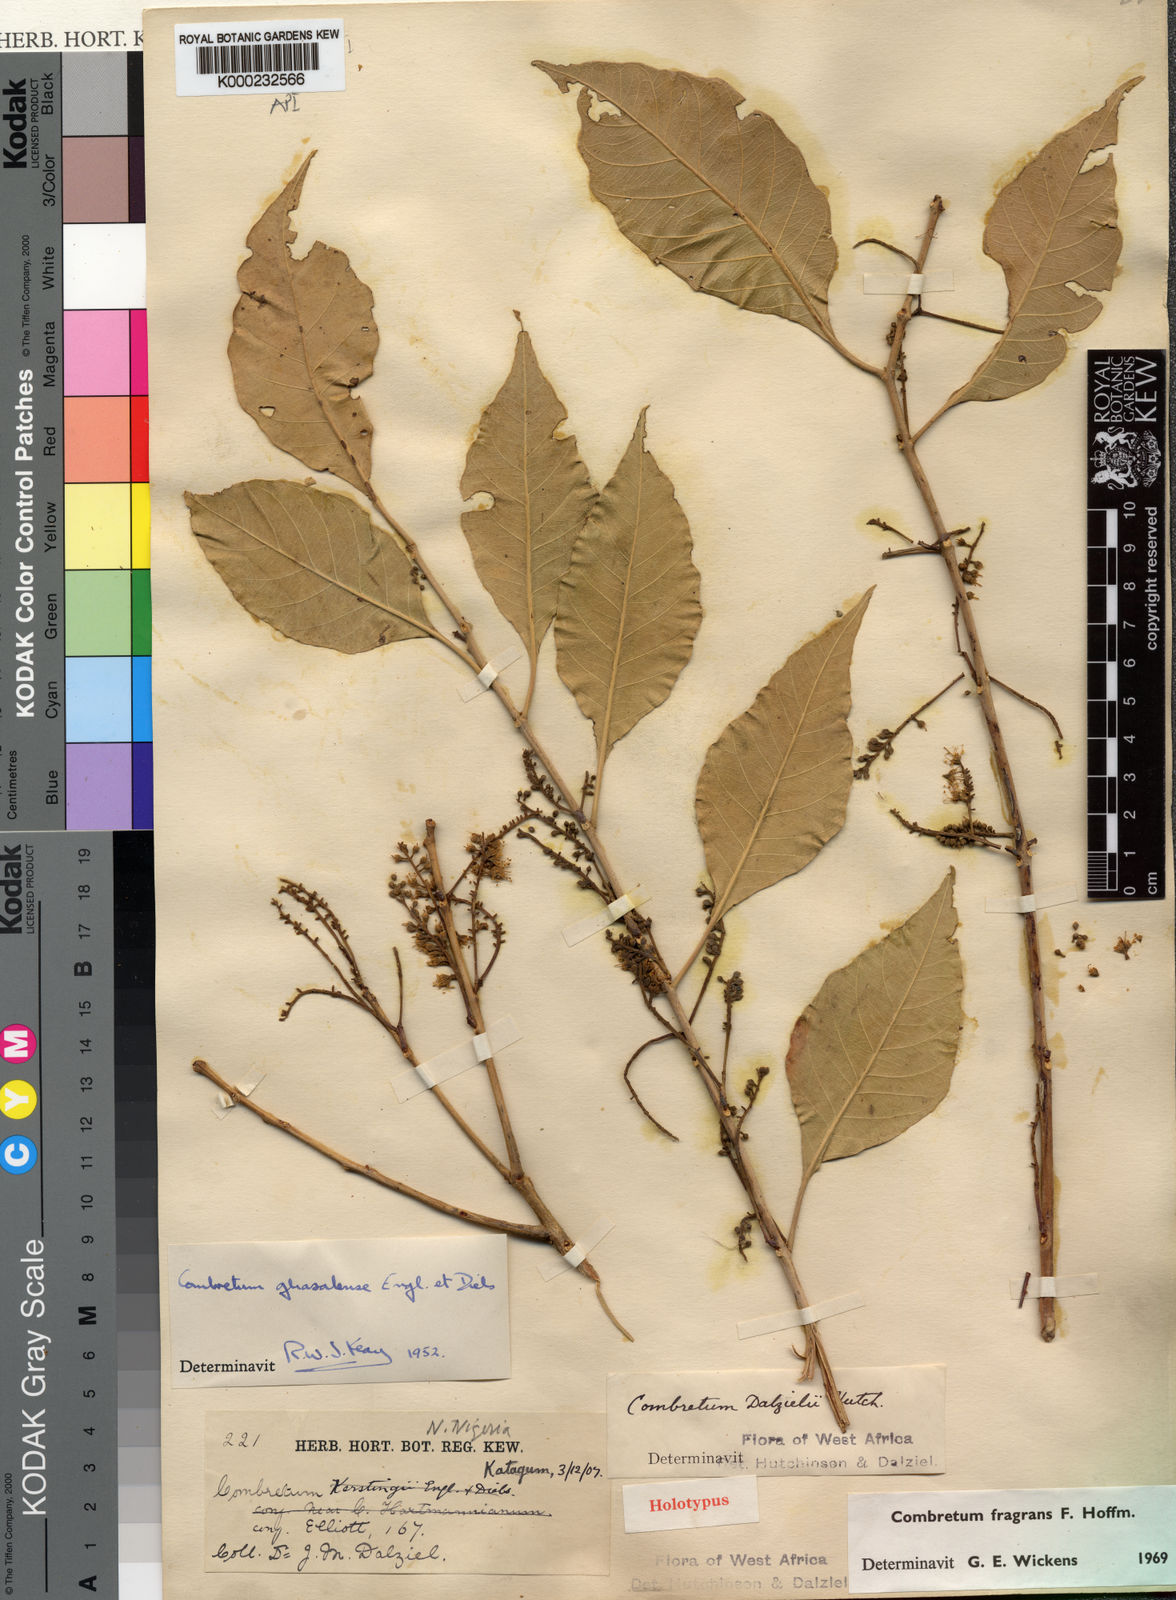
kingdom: Plantae
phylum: Tracheophyta
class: Magnoliopsida
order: Myrtales
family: Combretaceae
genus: Combretum
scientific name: Combretum adenogonium
